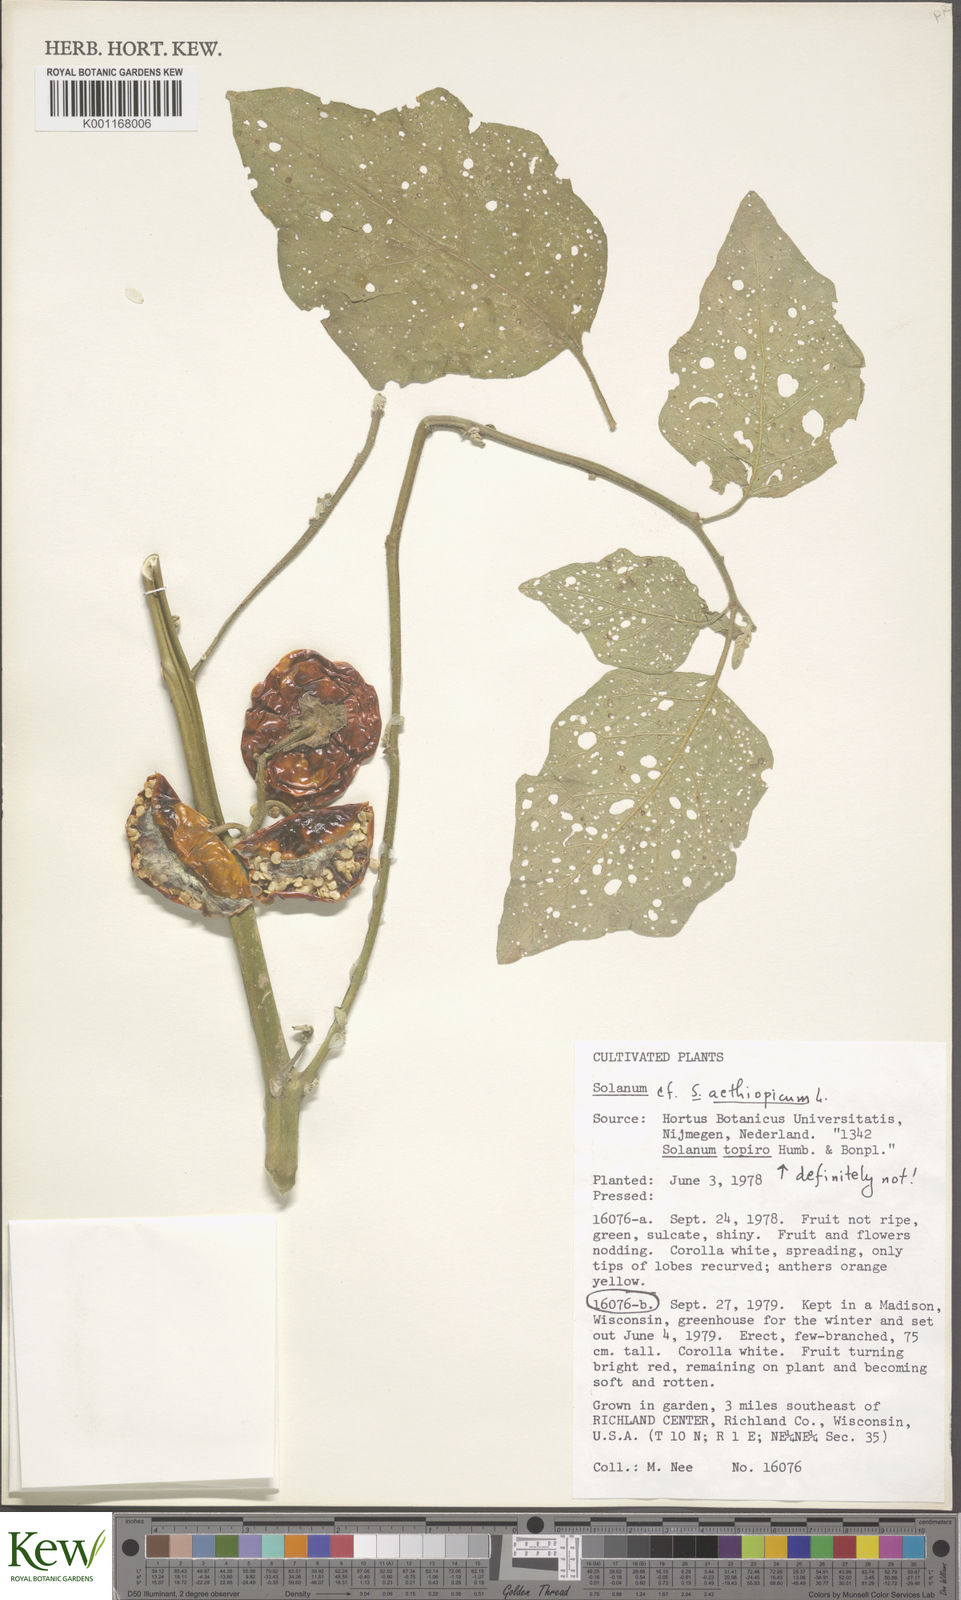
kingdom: Plantae
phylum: Tracheophyta
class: Magnoliopsida
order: Solanales
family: Solanaceae
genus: Solanum
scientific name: Solanum aethiopicum
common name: Gilo
